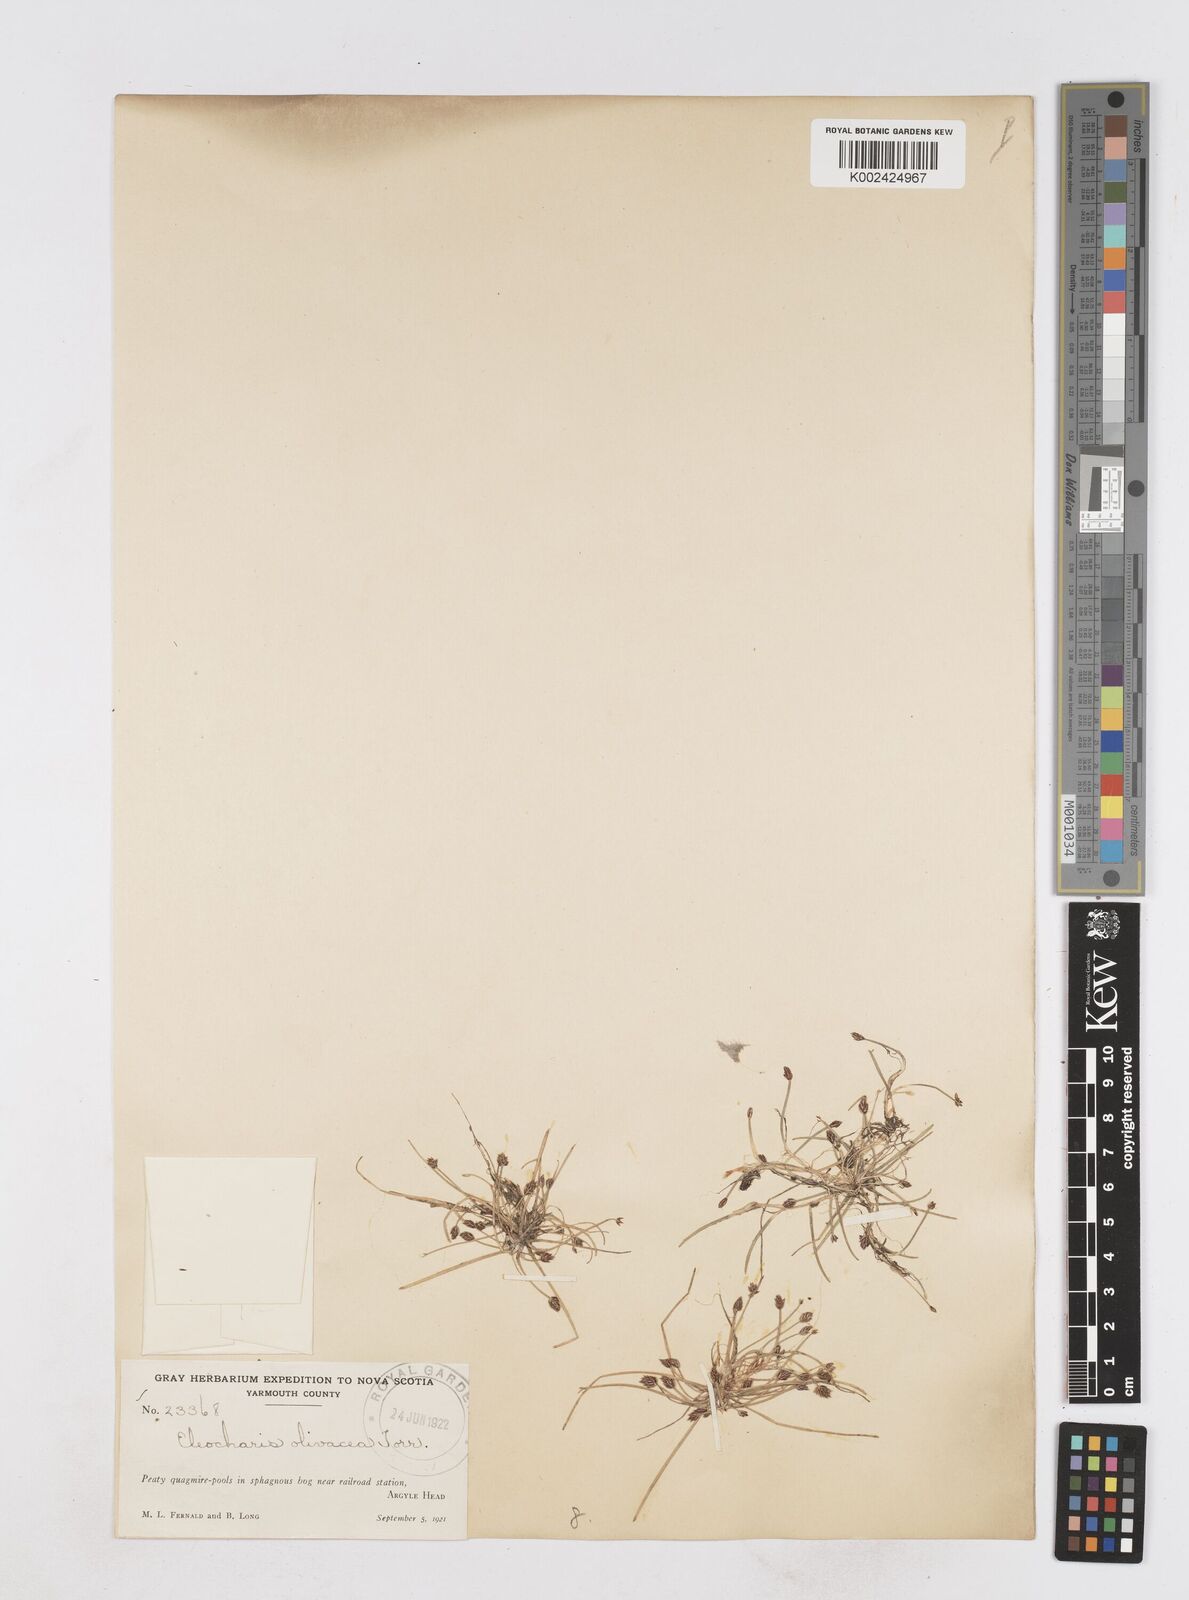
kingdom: Plantae
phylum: Tracheophyta
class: Liliopsida
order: Poales
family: Cyperaceae
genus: Eleocharis
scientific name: Eleocharis flavescens
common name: Yellow spikerush
